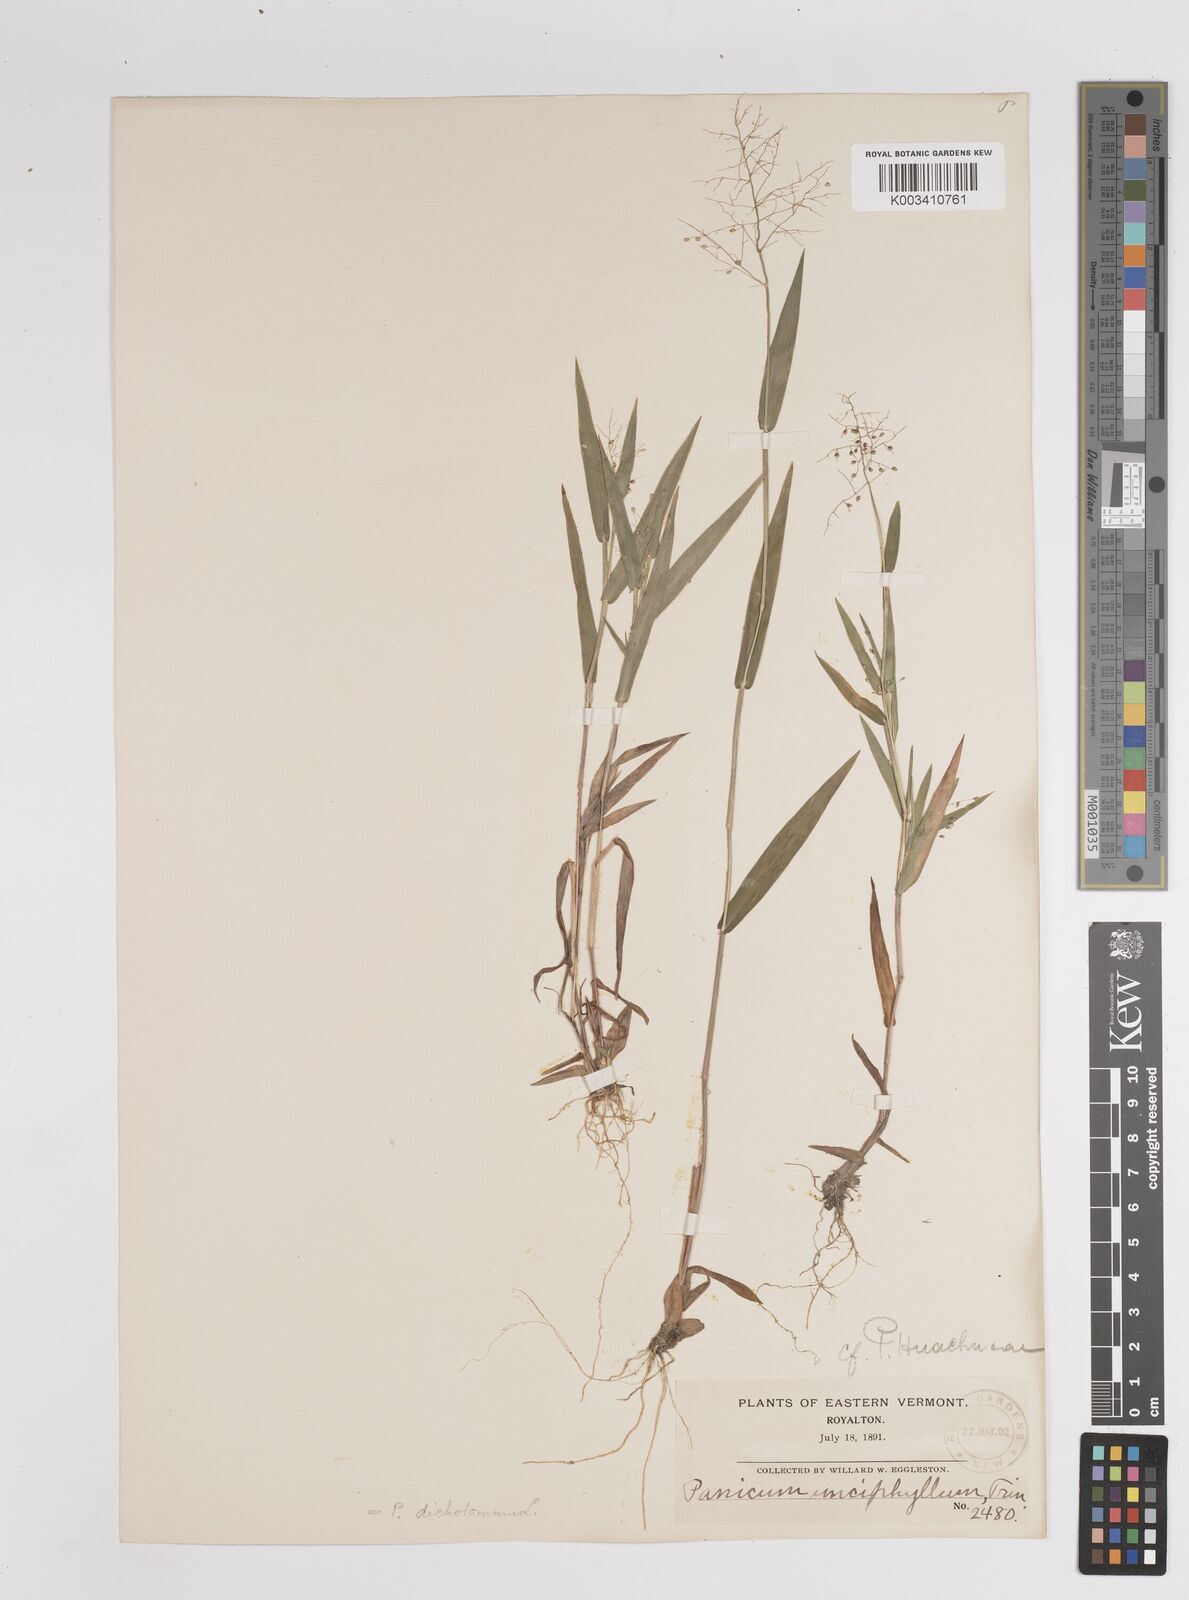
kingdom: Plantae
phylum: Tracheophyta
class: Liliopsida
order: Poales
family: Poaceae
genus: Dichanthelium
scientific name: Dichanthelium acuminatum
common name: Hairy panic grass
